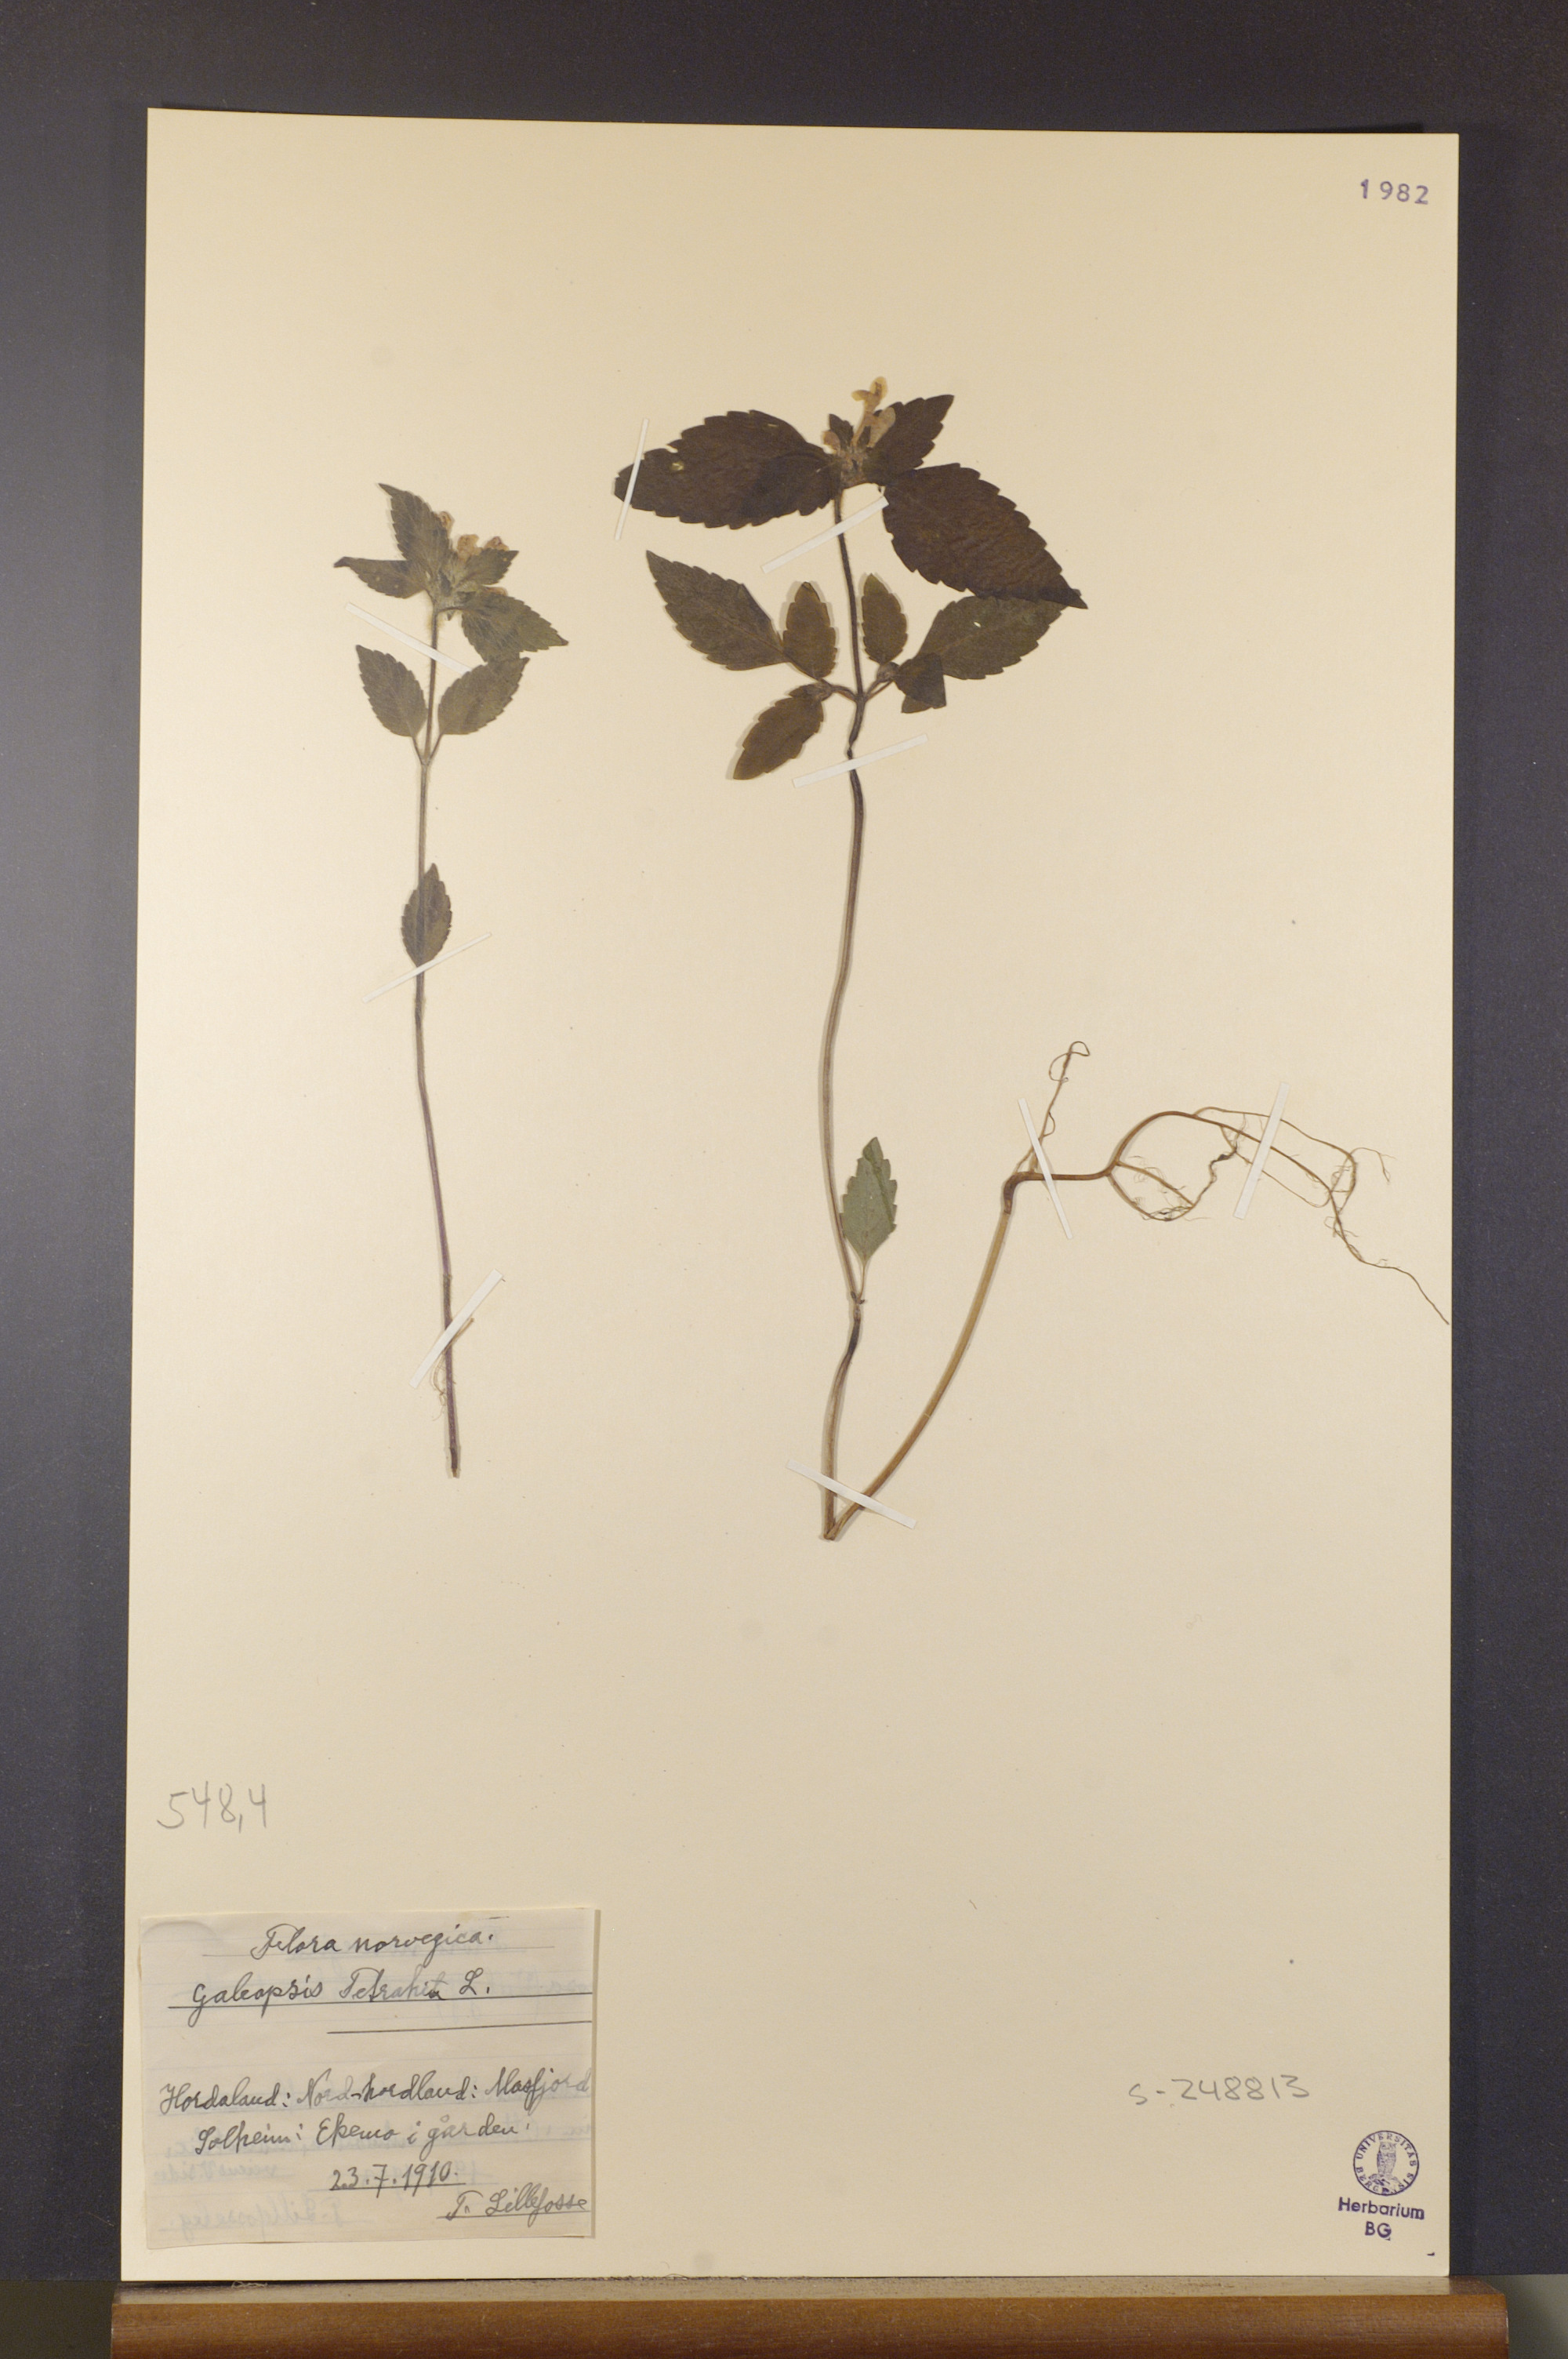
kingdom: Plantae
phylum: Tracheophyta
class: Magnoliopsida
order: Lamiales
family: Lamiaceae
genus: Galeopsis
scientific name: Galeopsis tetrahit
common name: Common hemp-nettle
